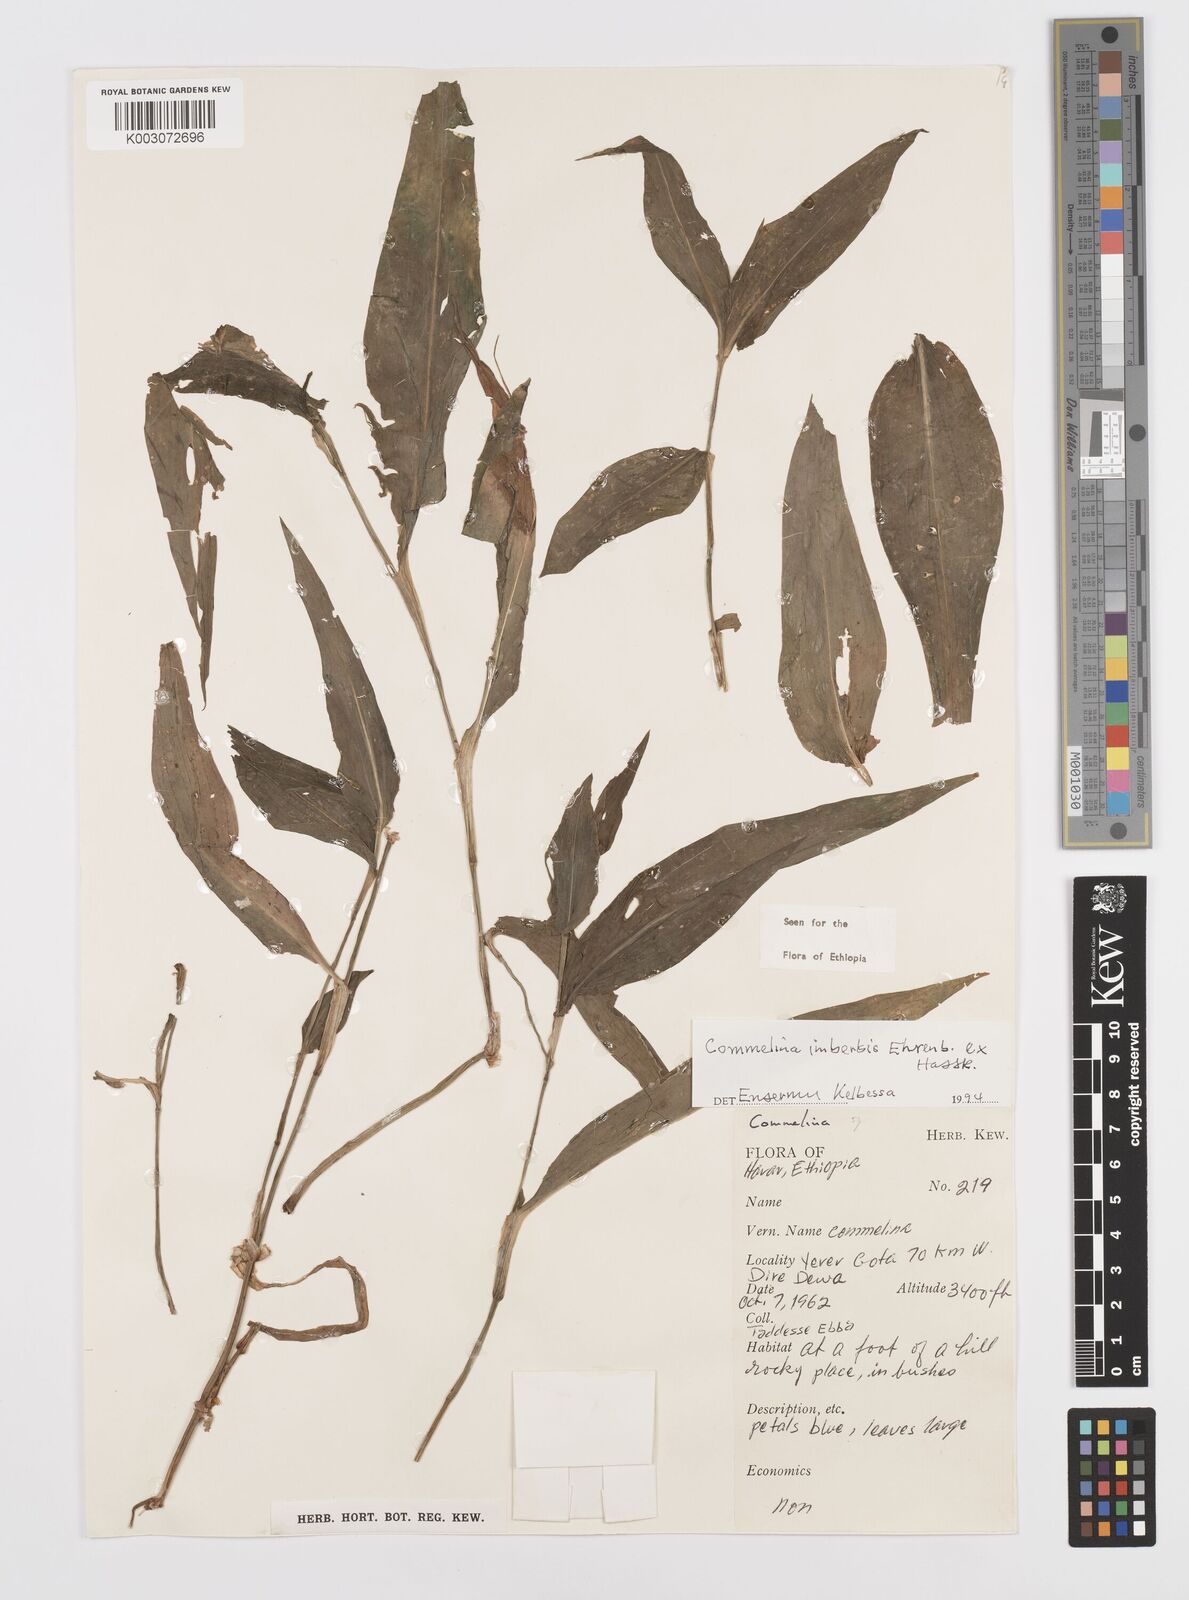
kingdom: Plantae
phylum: Tracheophyta
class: Liliopsida
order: Commelinales
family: Commelinaceae
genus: Commelina
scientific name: Commelina imberbis
